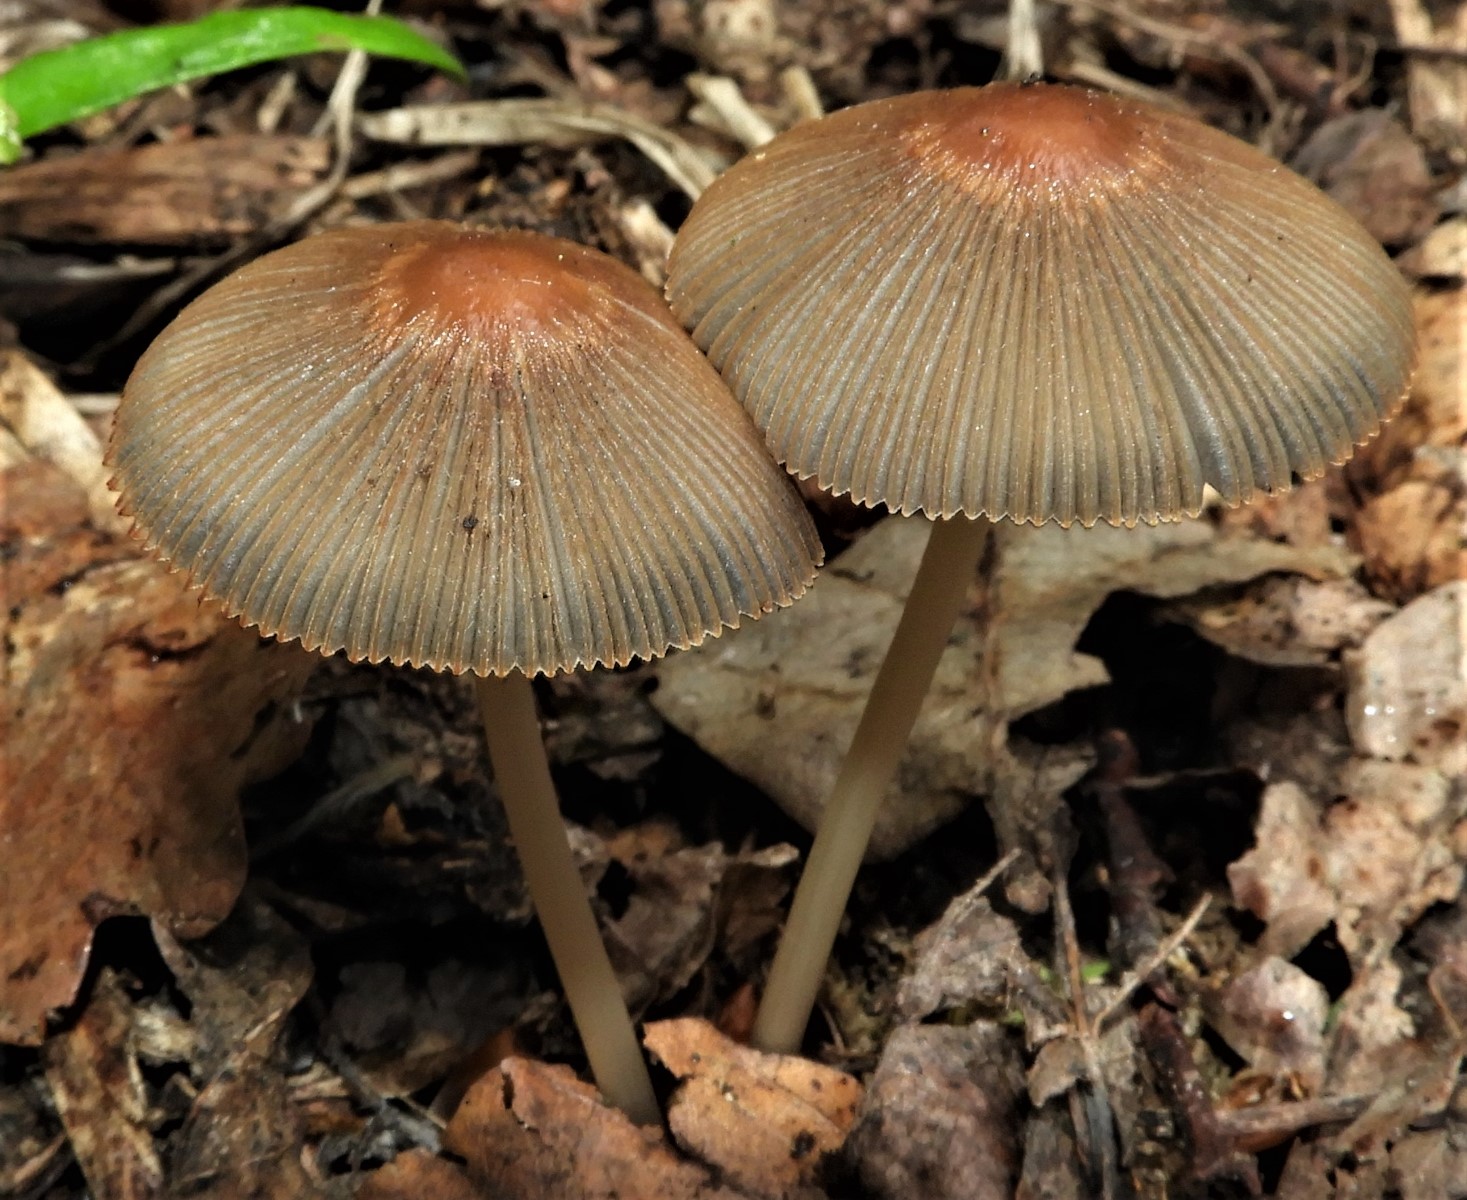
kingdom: Fungi
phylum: Basidiomycota
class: Agaricomycetes
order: Agaricales
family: Psathyrellaceae
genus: Parasola
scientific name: Parasola
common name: hjulhat
